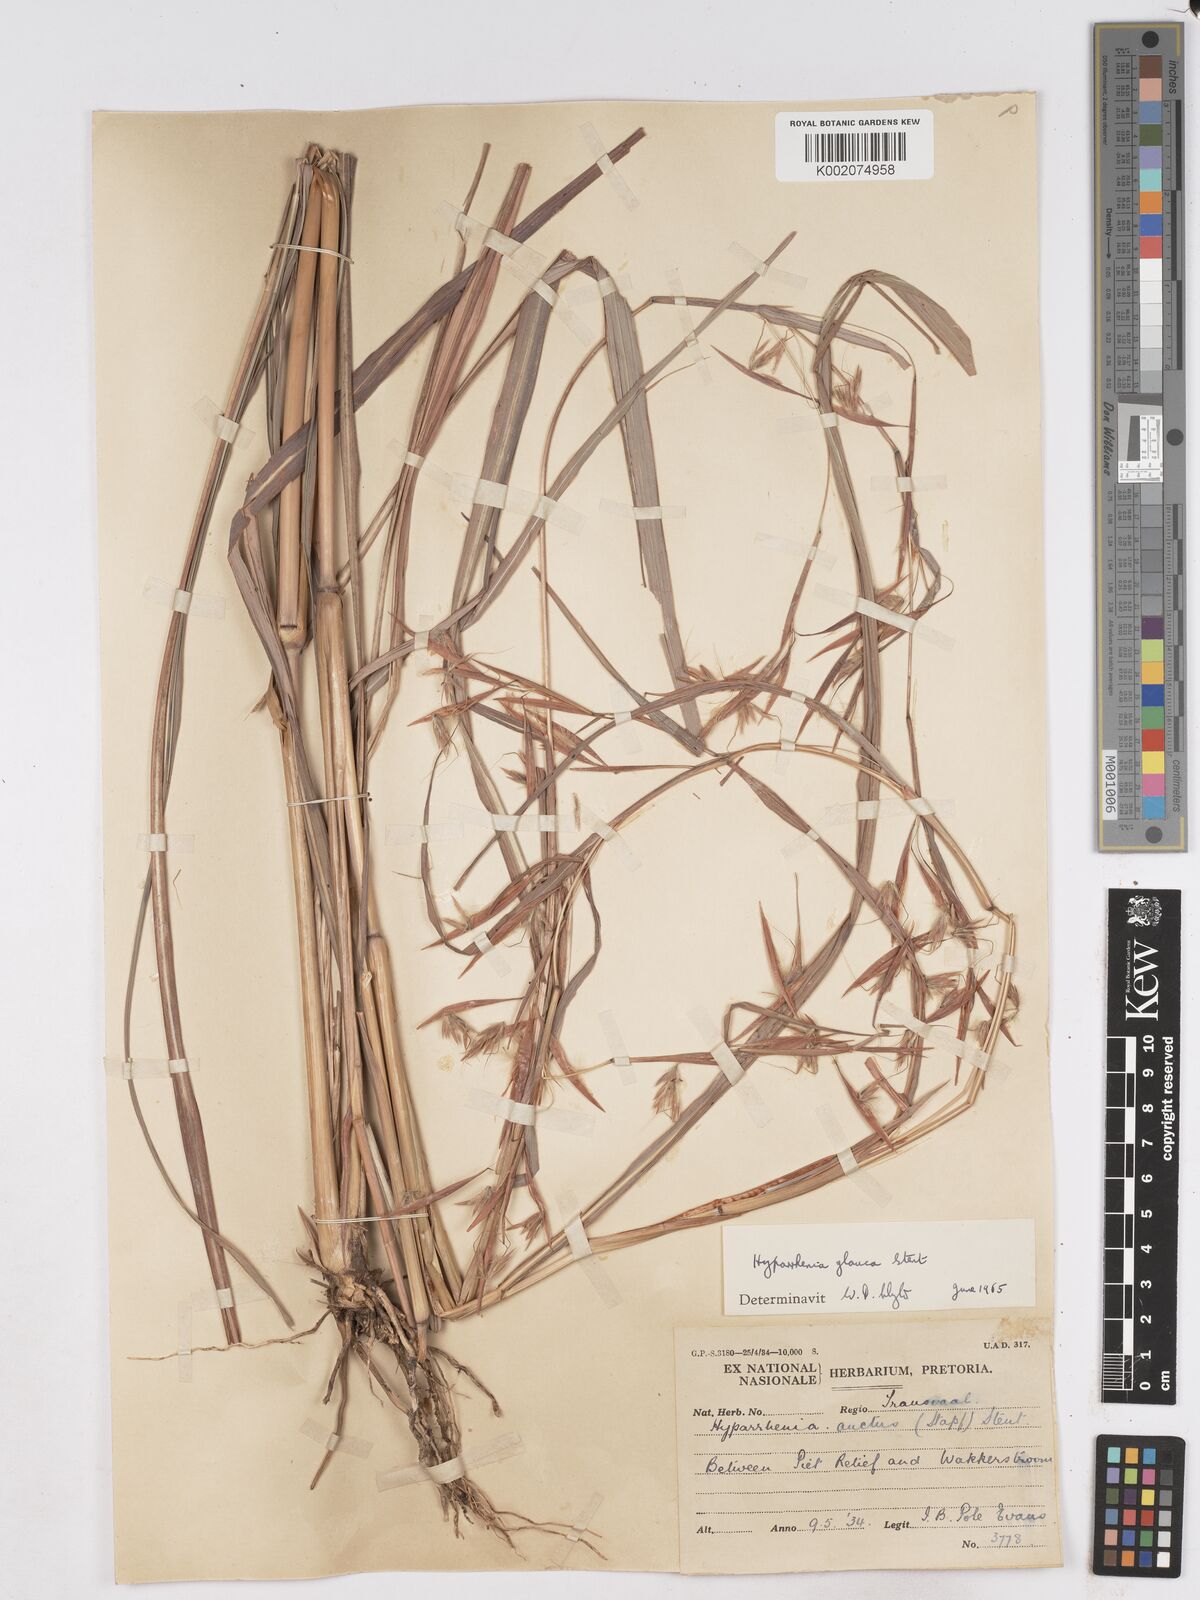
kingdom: Plantae
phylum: Tracheophyta
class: Liliopsida
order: Poales
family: Poaceae
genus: Hyparrhenia
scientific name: Hyparrhenia tamba
